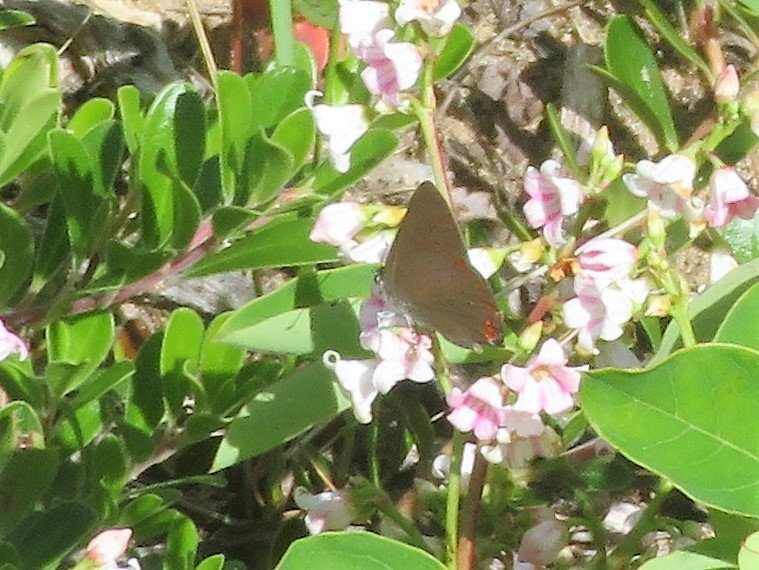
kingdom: Animalia
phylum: Arthropoda
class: Insecta
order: Lepidoptera
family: Lycaenidae
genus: Harkenclenus
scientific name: Harkenclenus titus
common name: Coral Hairstreak
